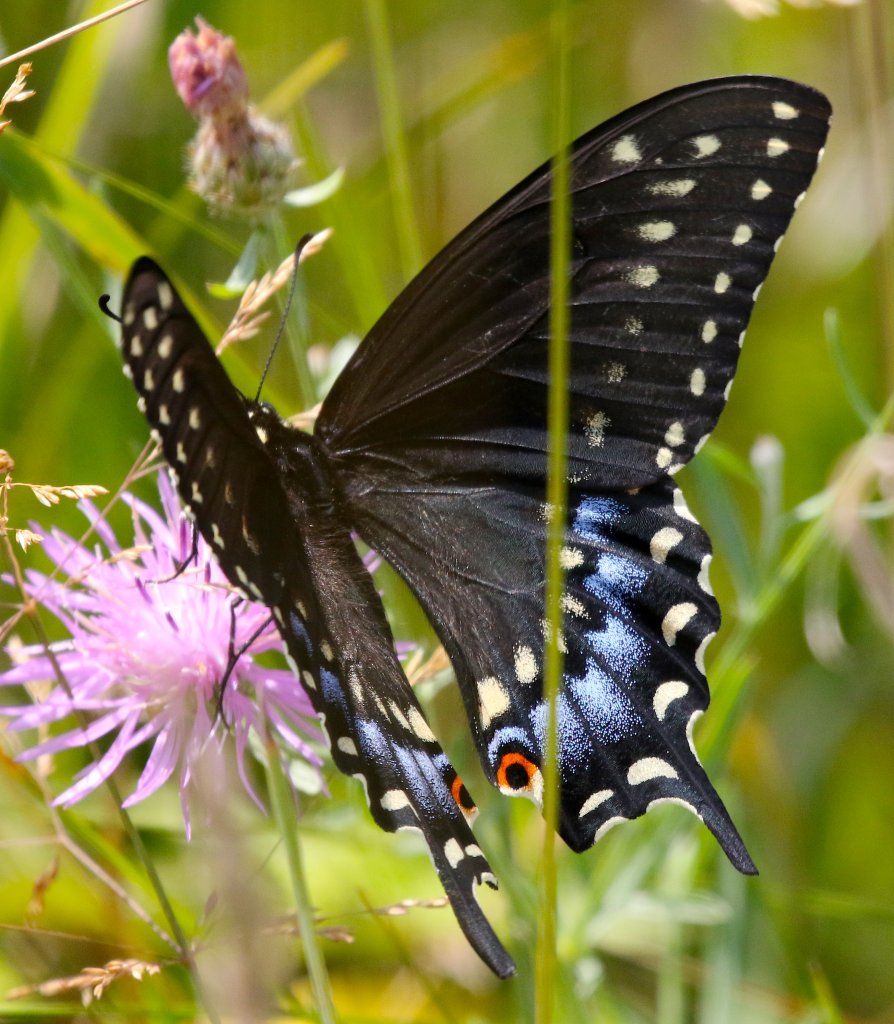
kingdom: Animalia
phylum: Arthropoda
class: Insecta
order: Lepidoptera
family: Papilionidae
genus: Papilio
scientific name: Papilio polyxenes
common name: Black Swallowtail
